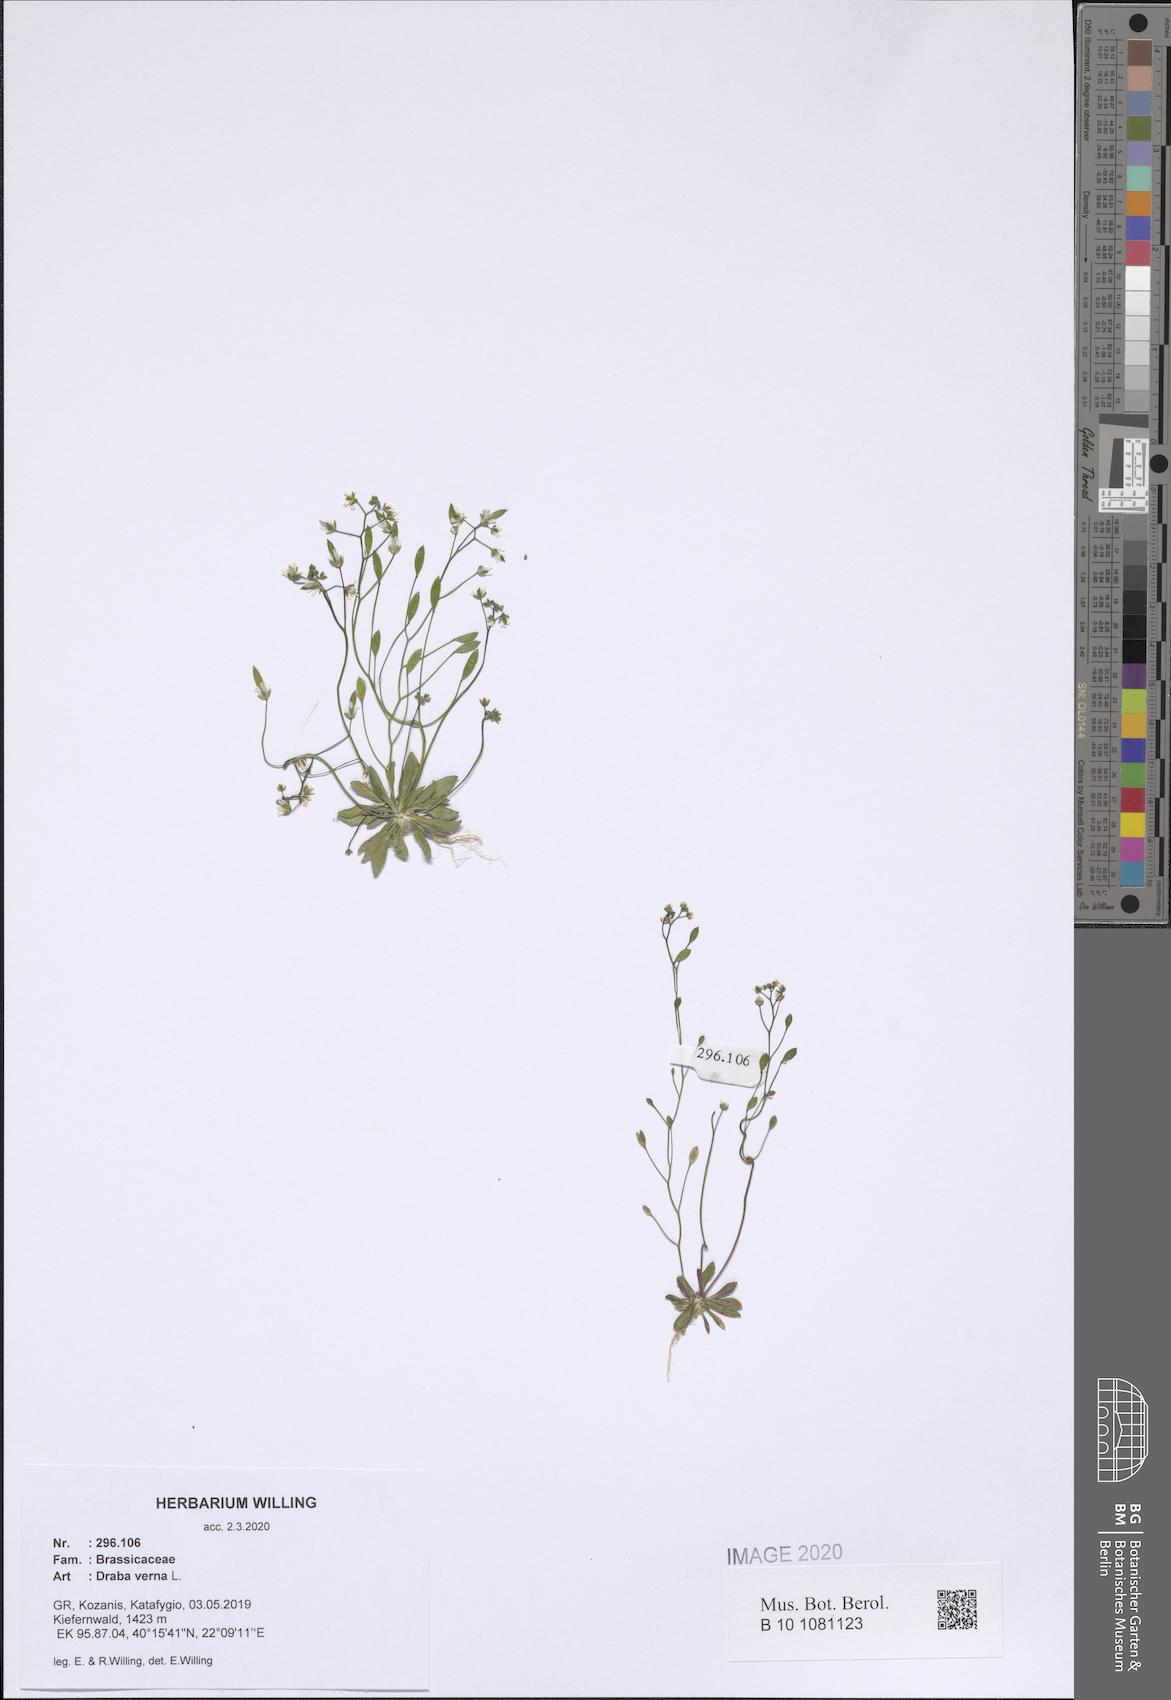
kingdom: Plantae
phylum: Tracheophyta
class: Magnoliopsida
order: Brassicales
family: Brassicaceae
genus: Draba
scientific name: Draba verna
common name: Spring draba
